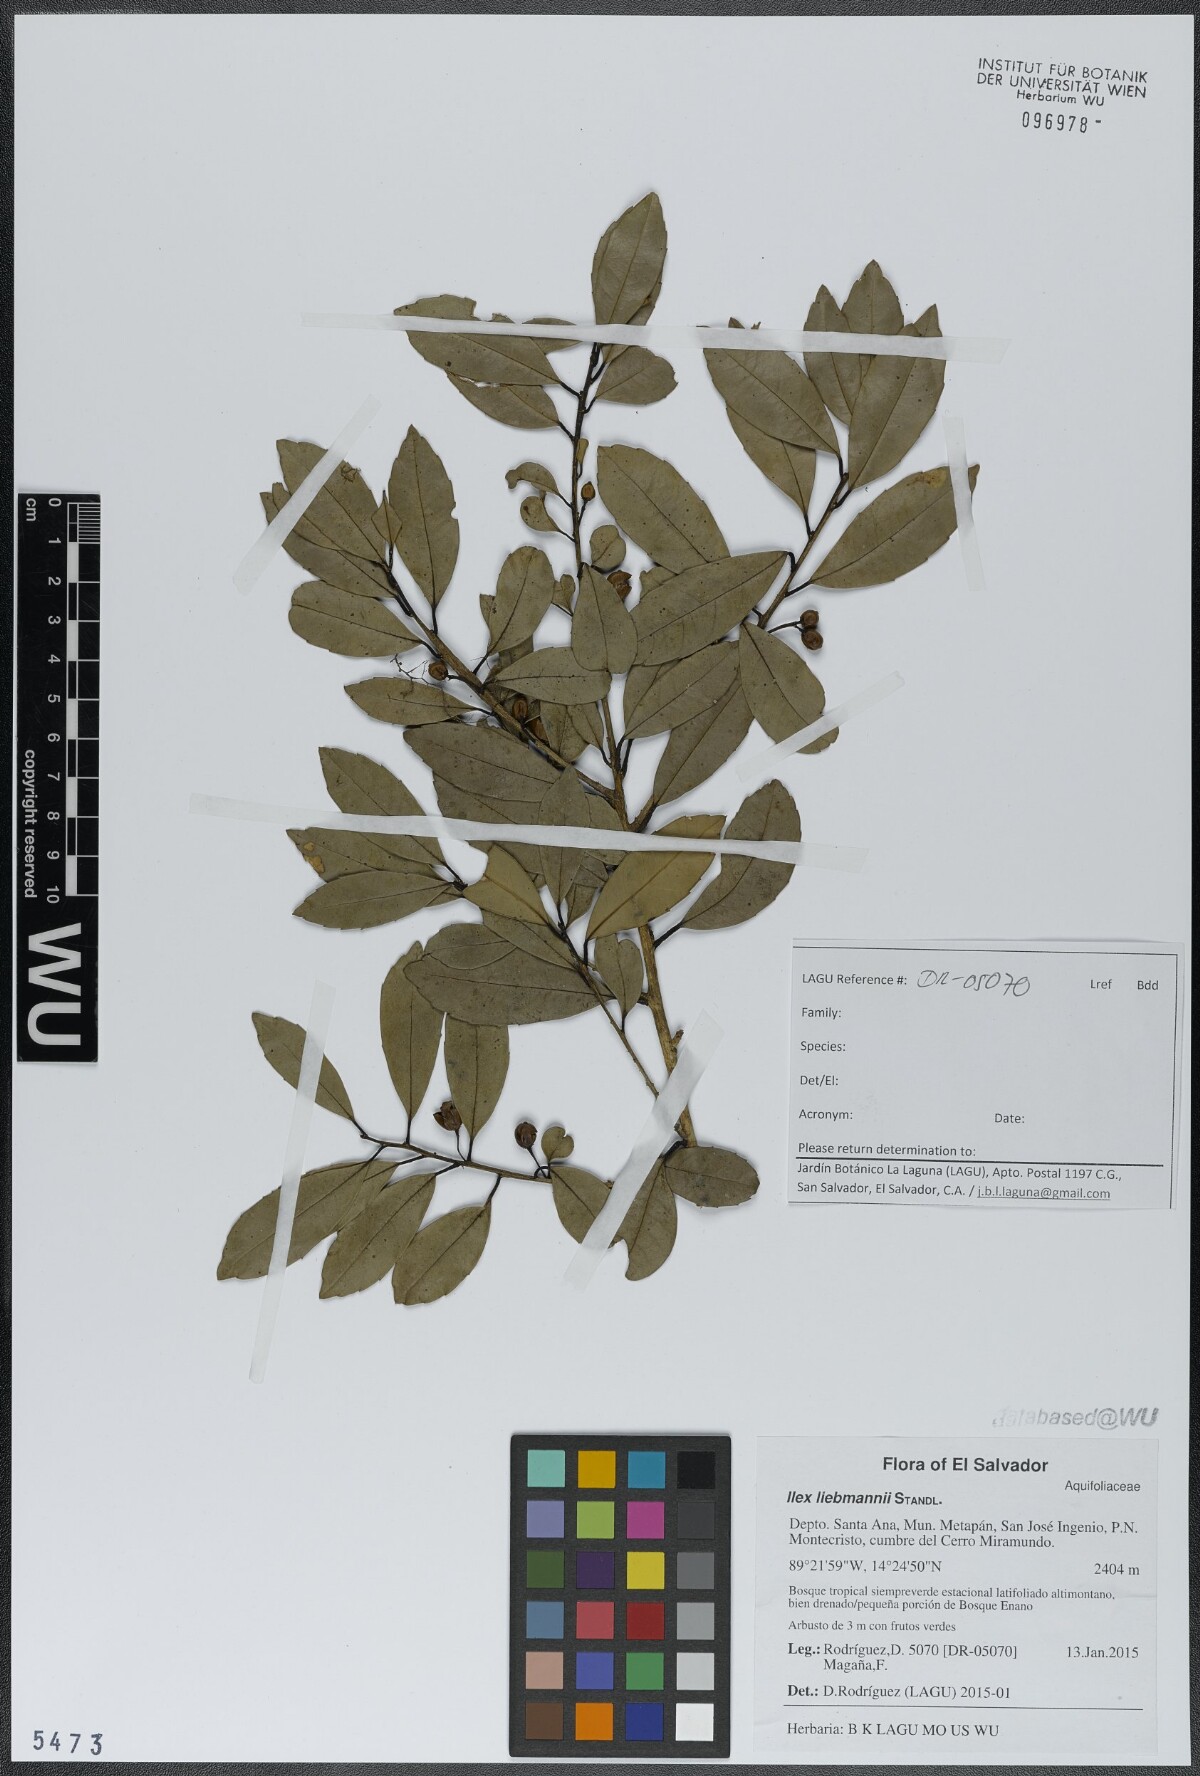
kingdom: Plantae
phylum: Tracheophyta
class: Magnoliopsida
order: Aquifoliales
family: Aquifoliaceae
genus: Ilex
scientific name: Ilex liebmannii
